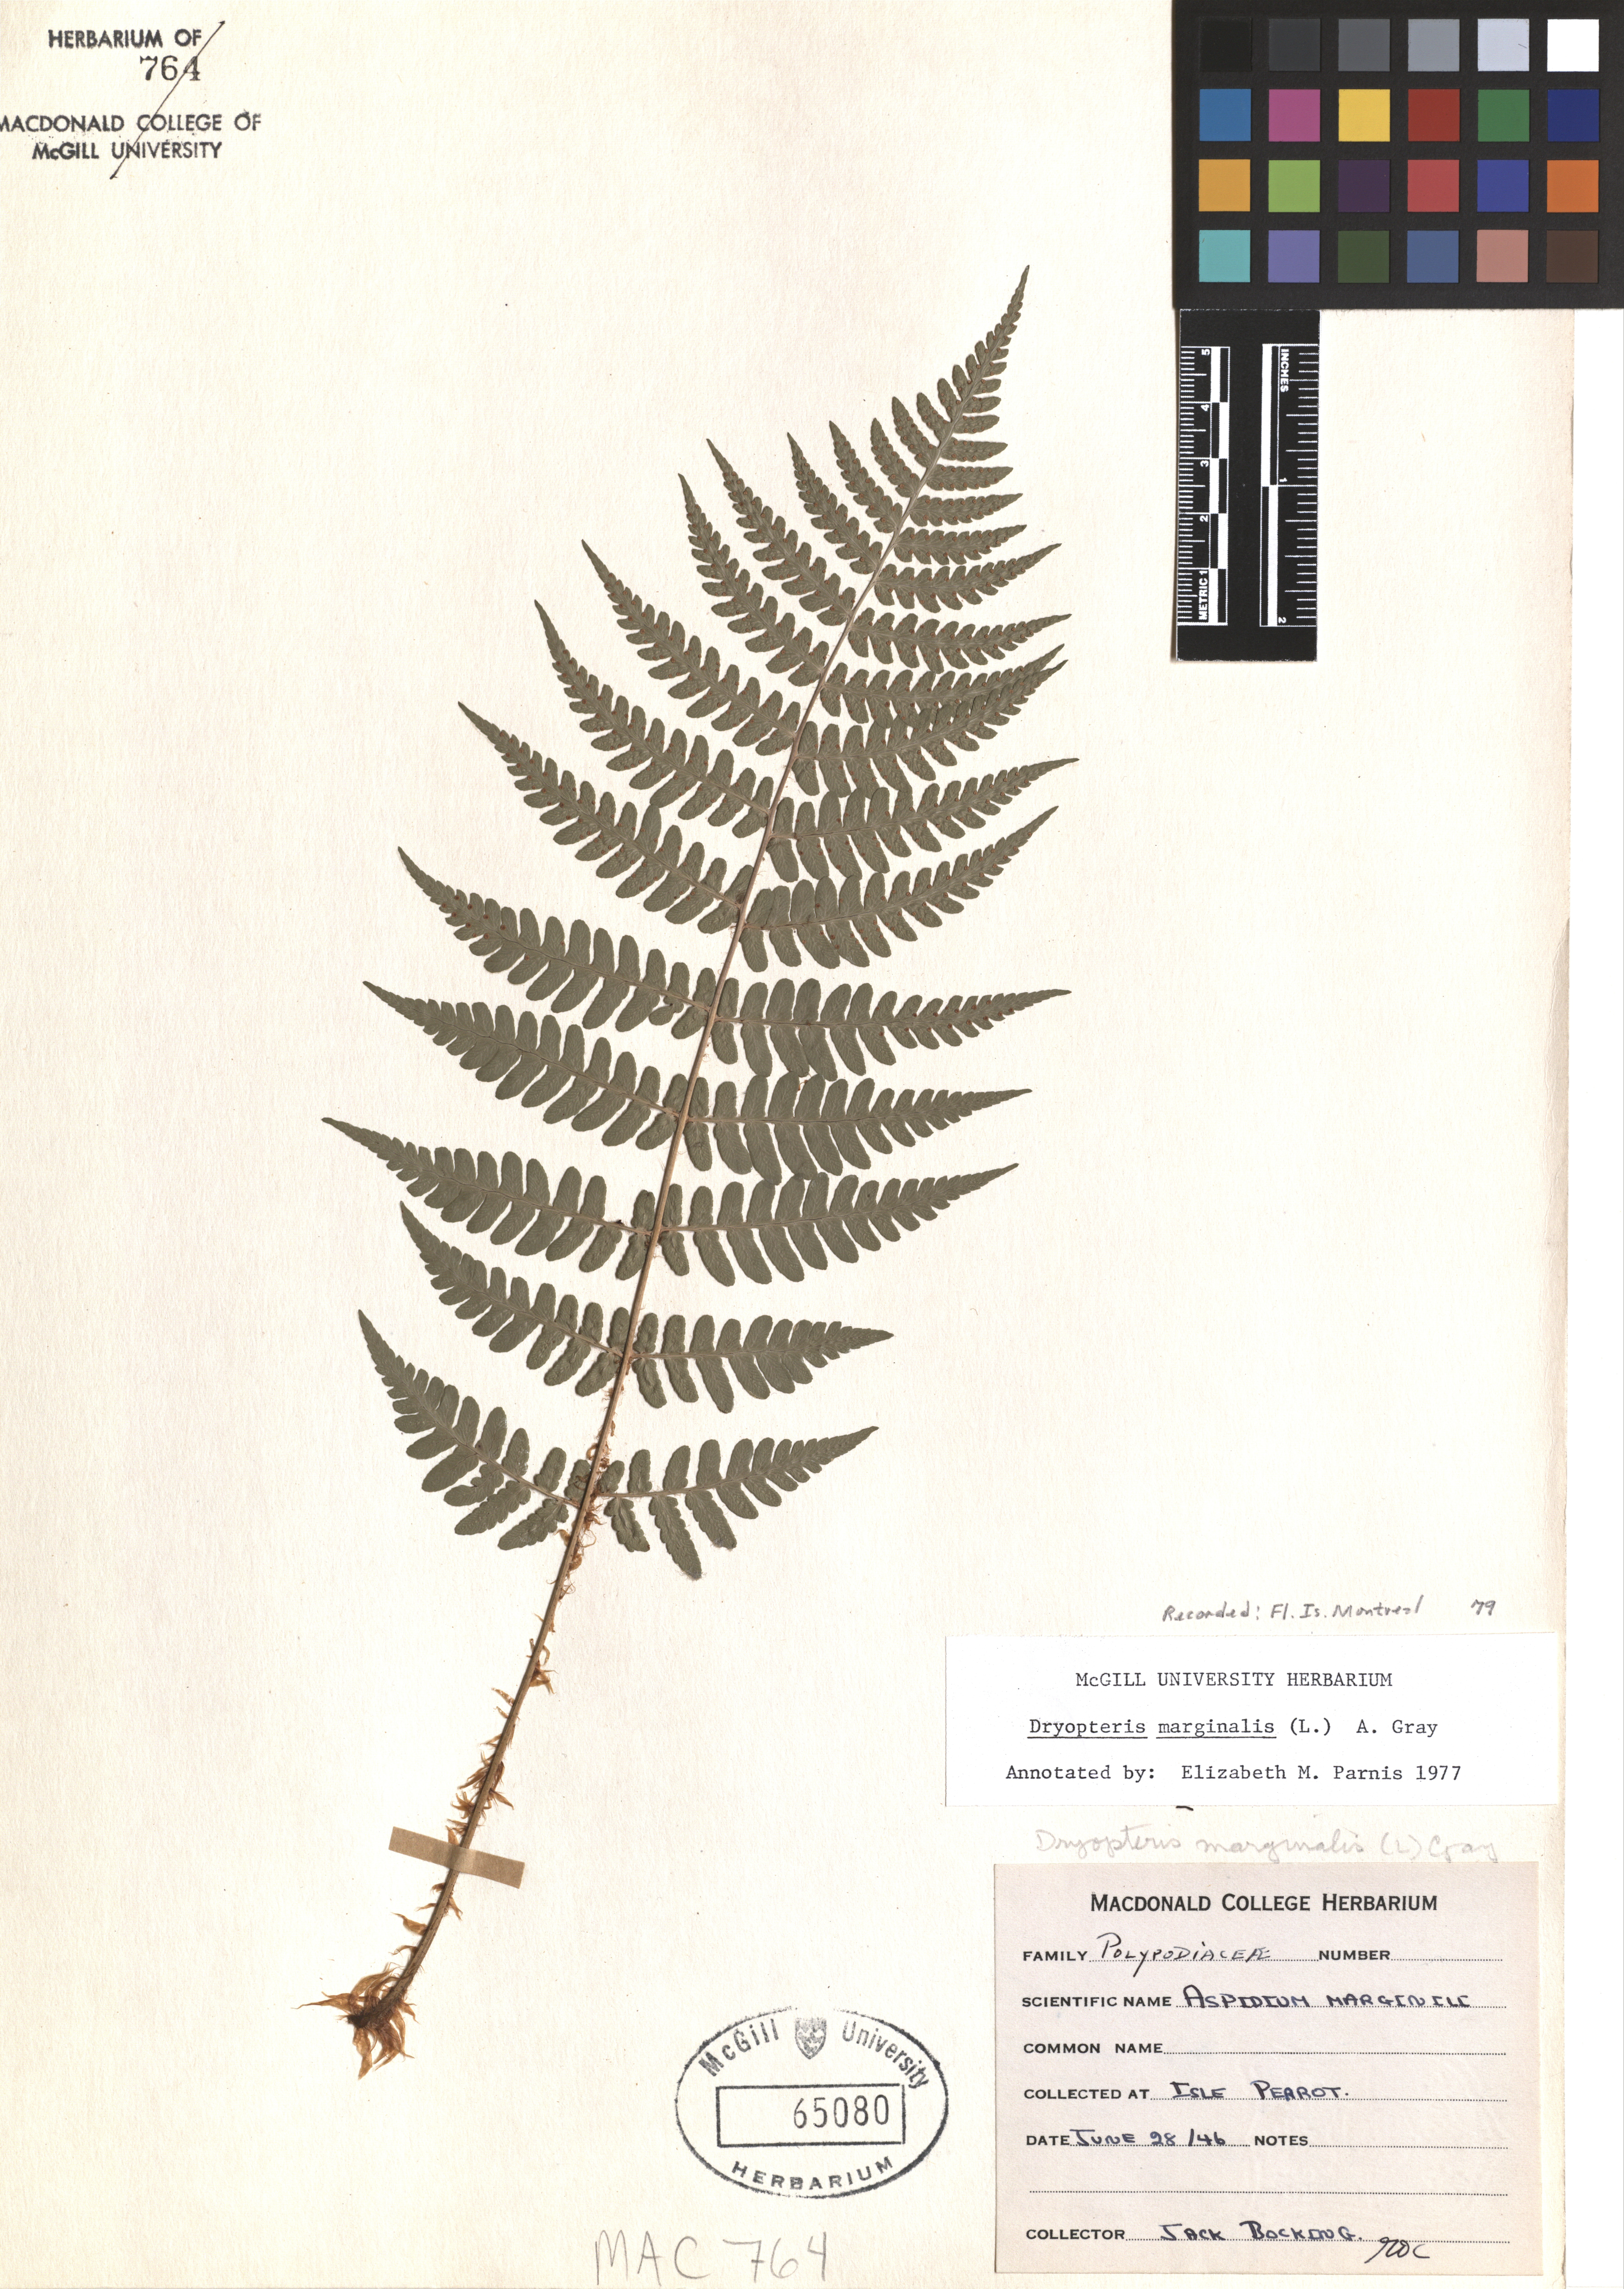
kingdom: Plantae
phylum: Tracheophyta
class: Polypodiopsida
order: Polypodiales
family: Dryopteridaceae
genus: Dryopteris
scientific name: Dryopteris marginalis
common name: Marginal wood fern
